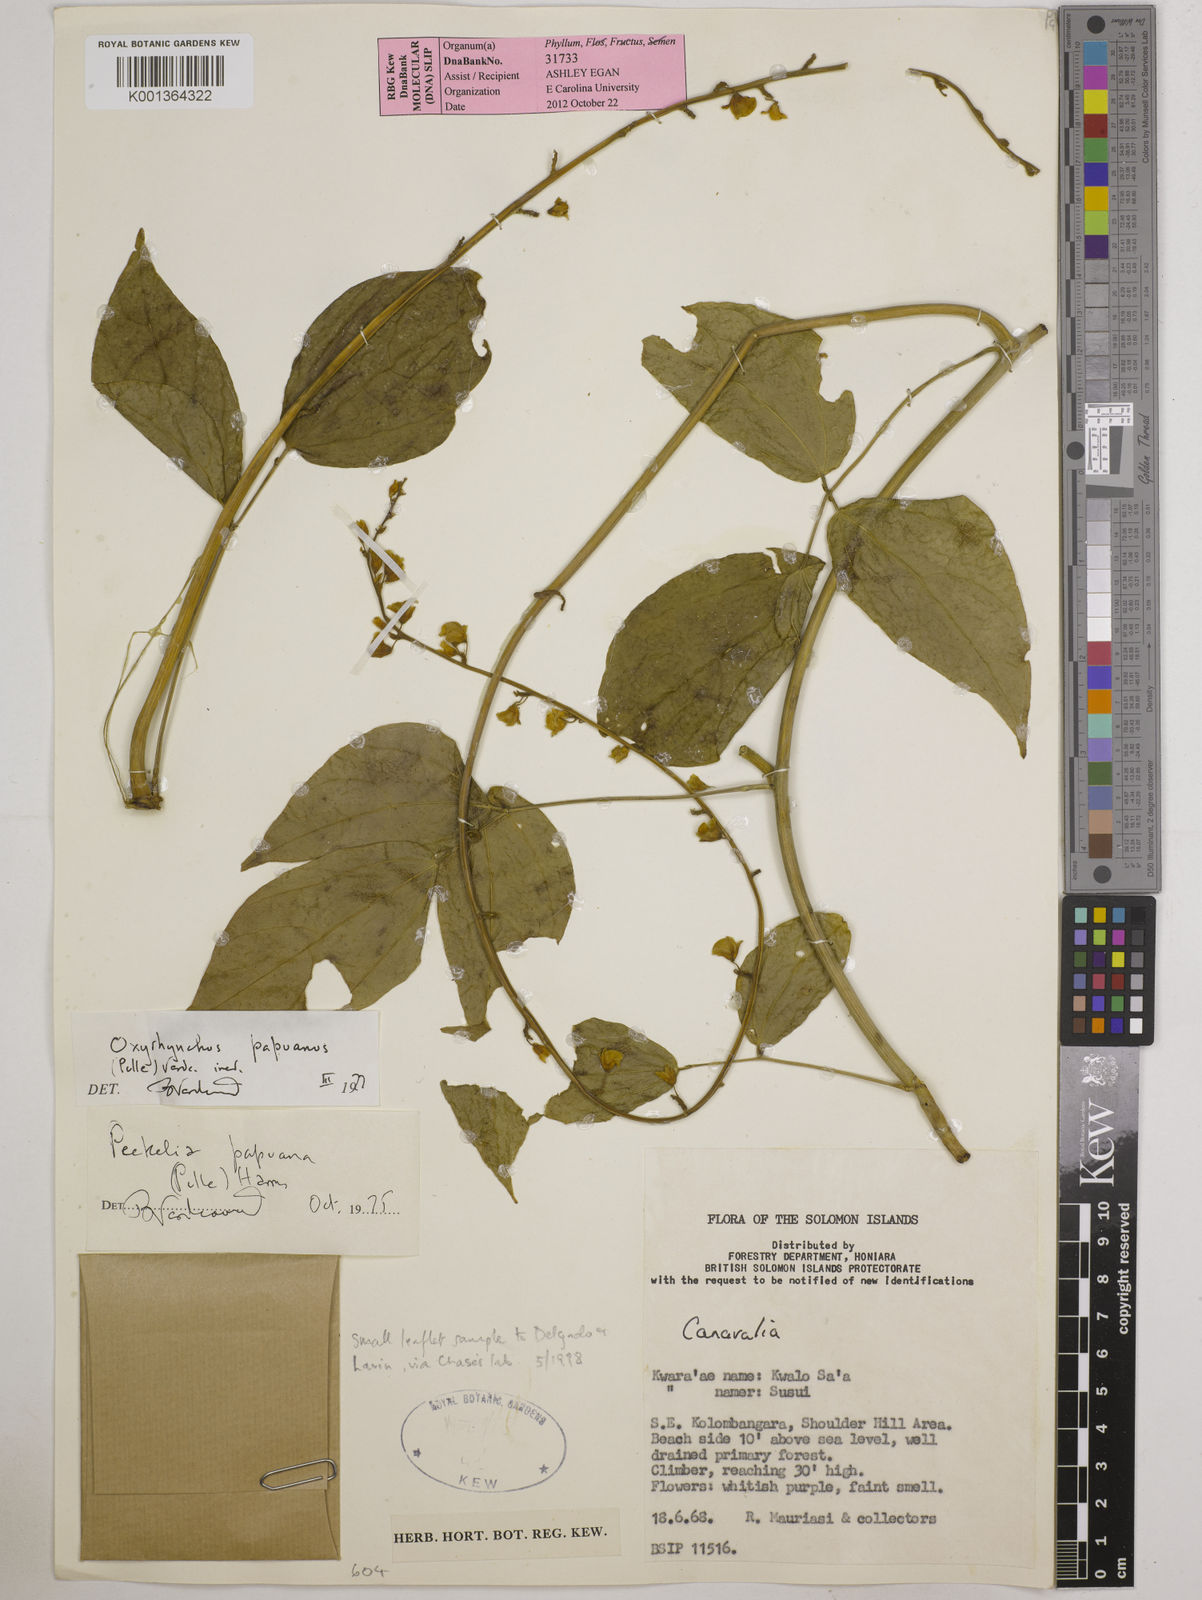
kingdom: Plantae
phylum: Tracheophyta
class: Magnoliopsida
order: Fabales
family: Fabaceae
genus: Oxyrhynchus
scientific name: Oxyrhynchus papuanus
